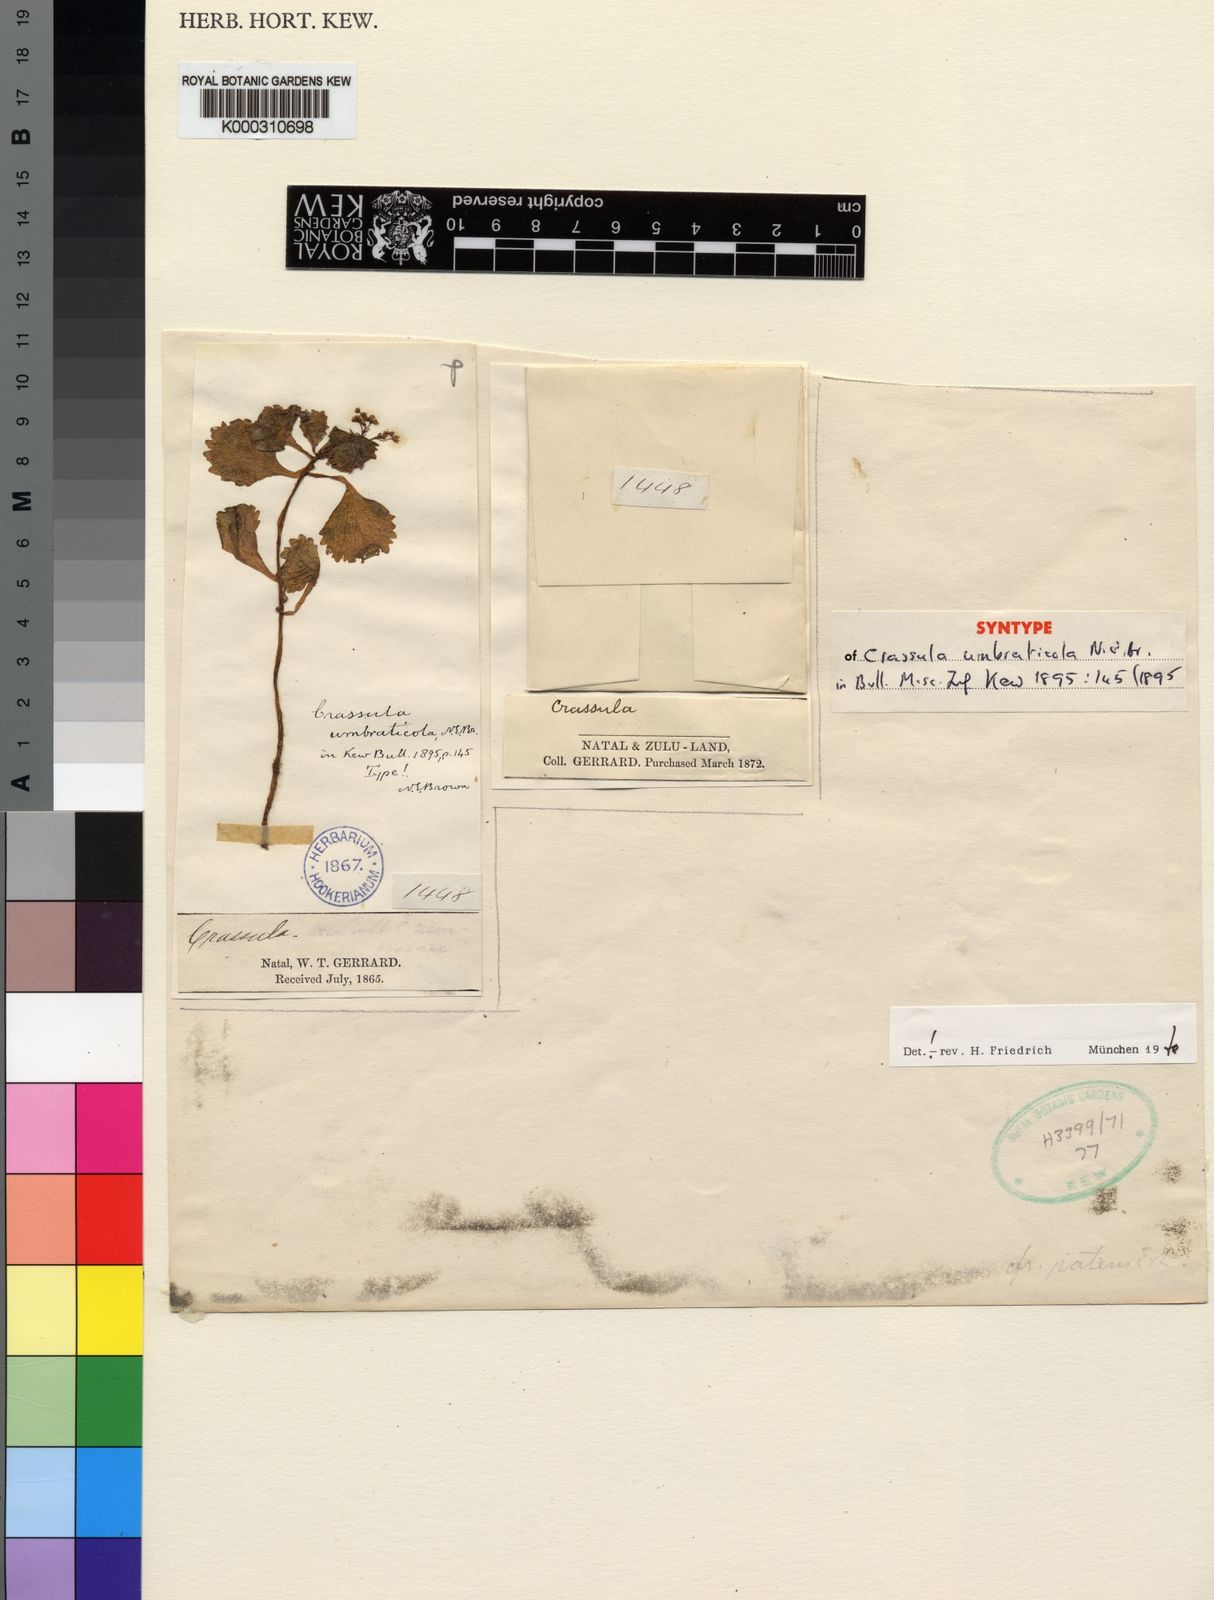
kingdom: Plantae
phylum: Tracheophyta
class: Magnoliopsida
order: Saxifragales
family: Crassulaceae
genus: Crassula
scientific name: Crassula umbraticola
